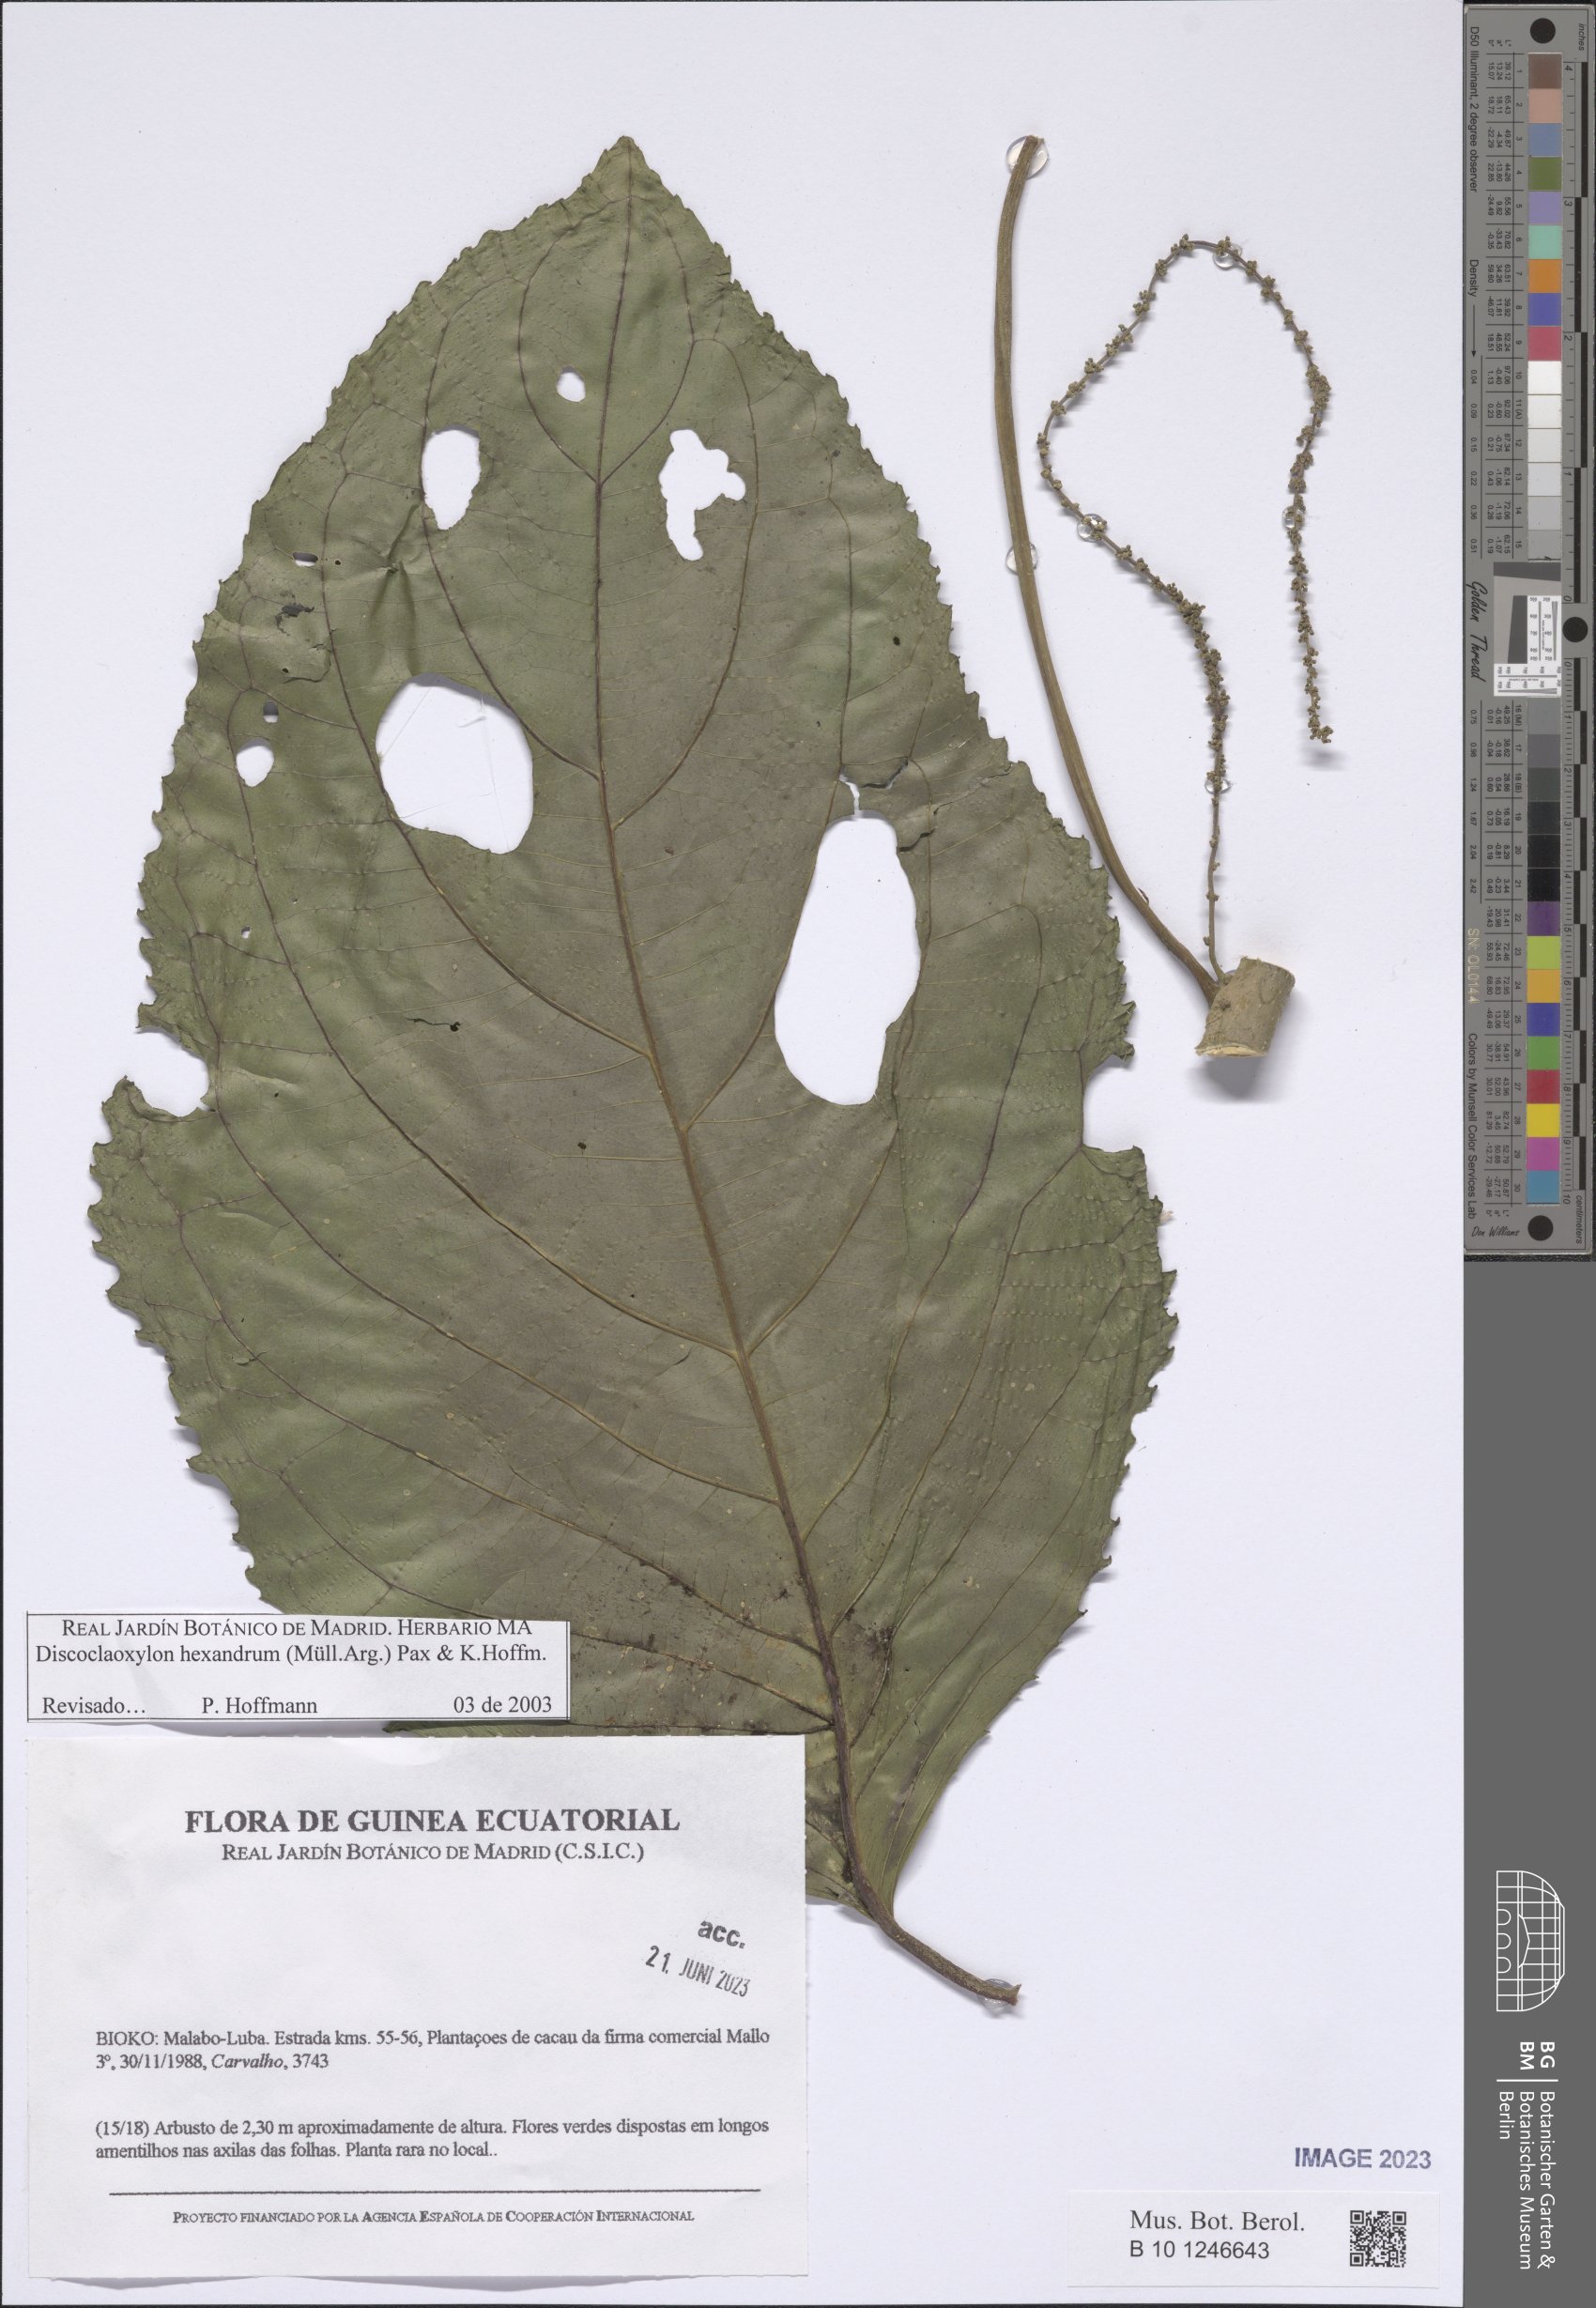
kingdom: Plantae
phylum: Tracheophyta
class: Magnoliopsida
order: Malpighiales
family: Euphorbiaceae
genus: Discoclaoxylon
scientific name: Discoclaoxylon hexandrum
